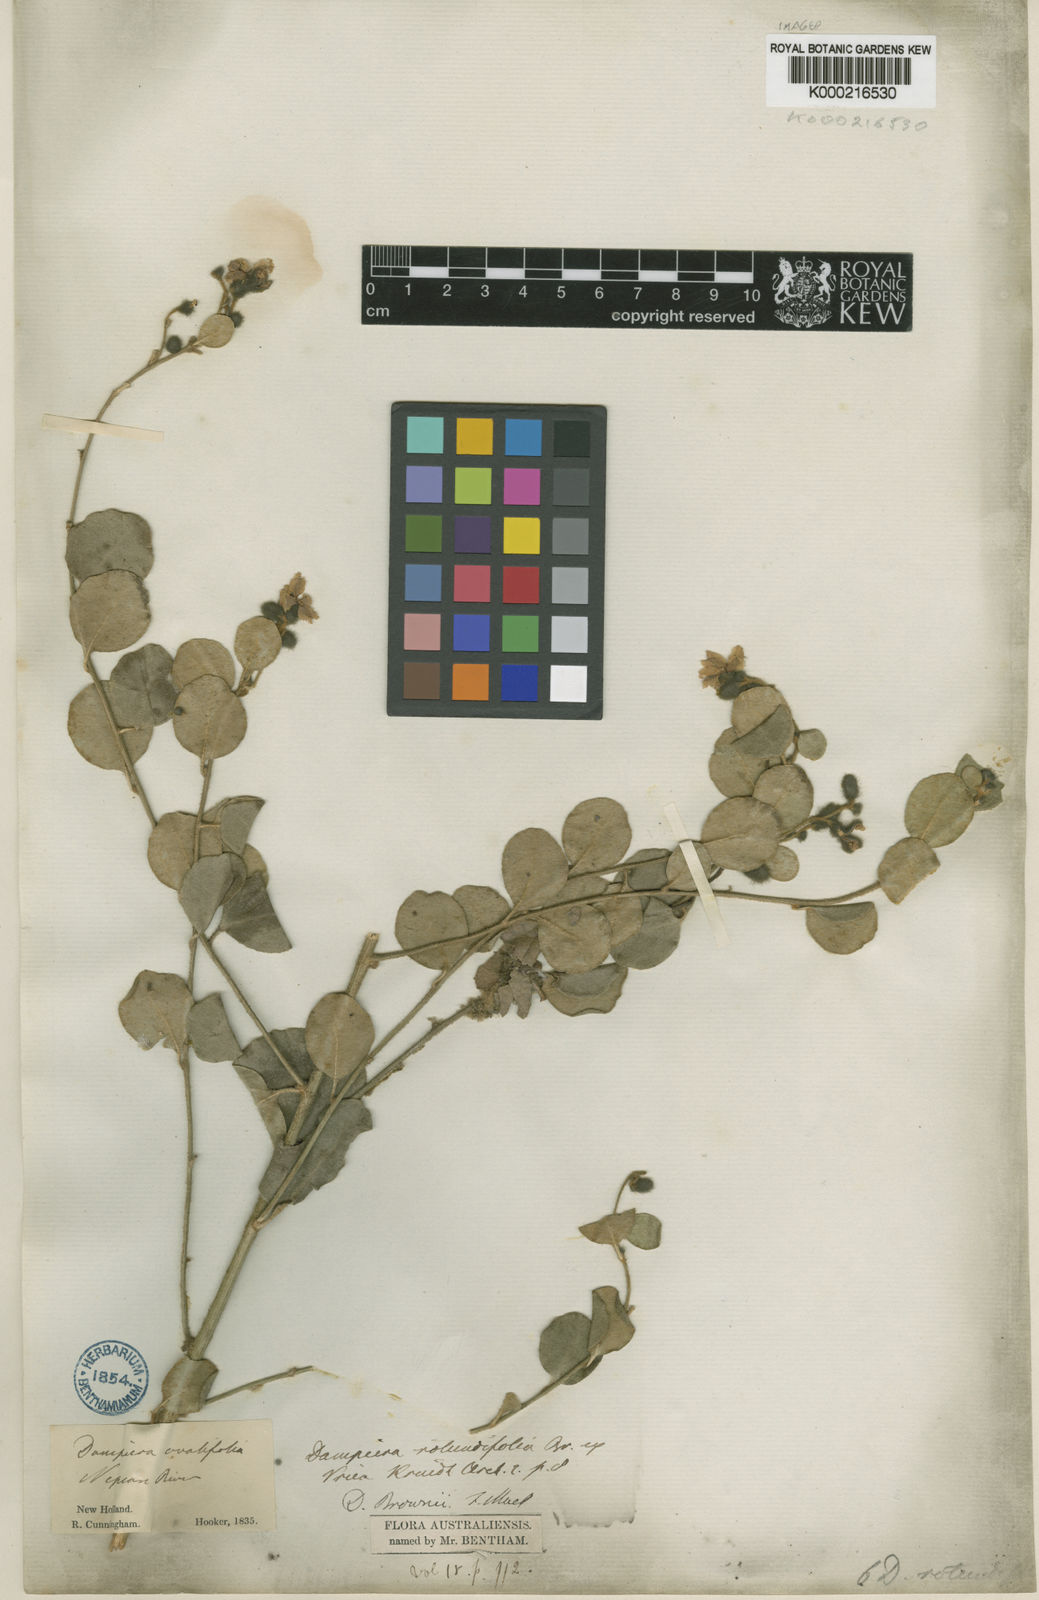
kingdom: Plantae
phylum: Tracheophyta
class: Magnoliopsida
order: Asterales
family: Goodeniaceae
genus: Dampiera
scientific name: Dampiera purpurea
